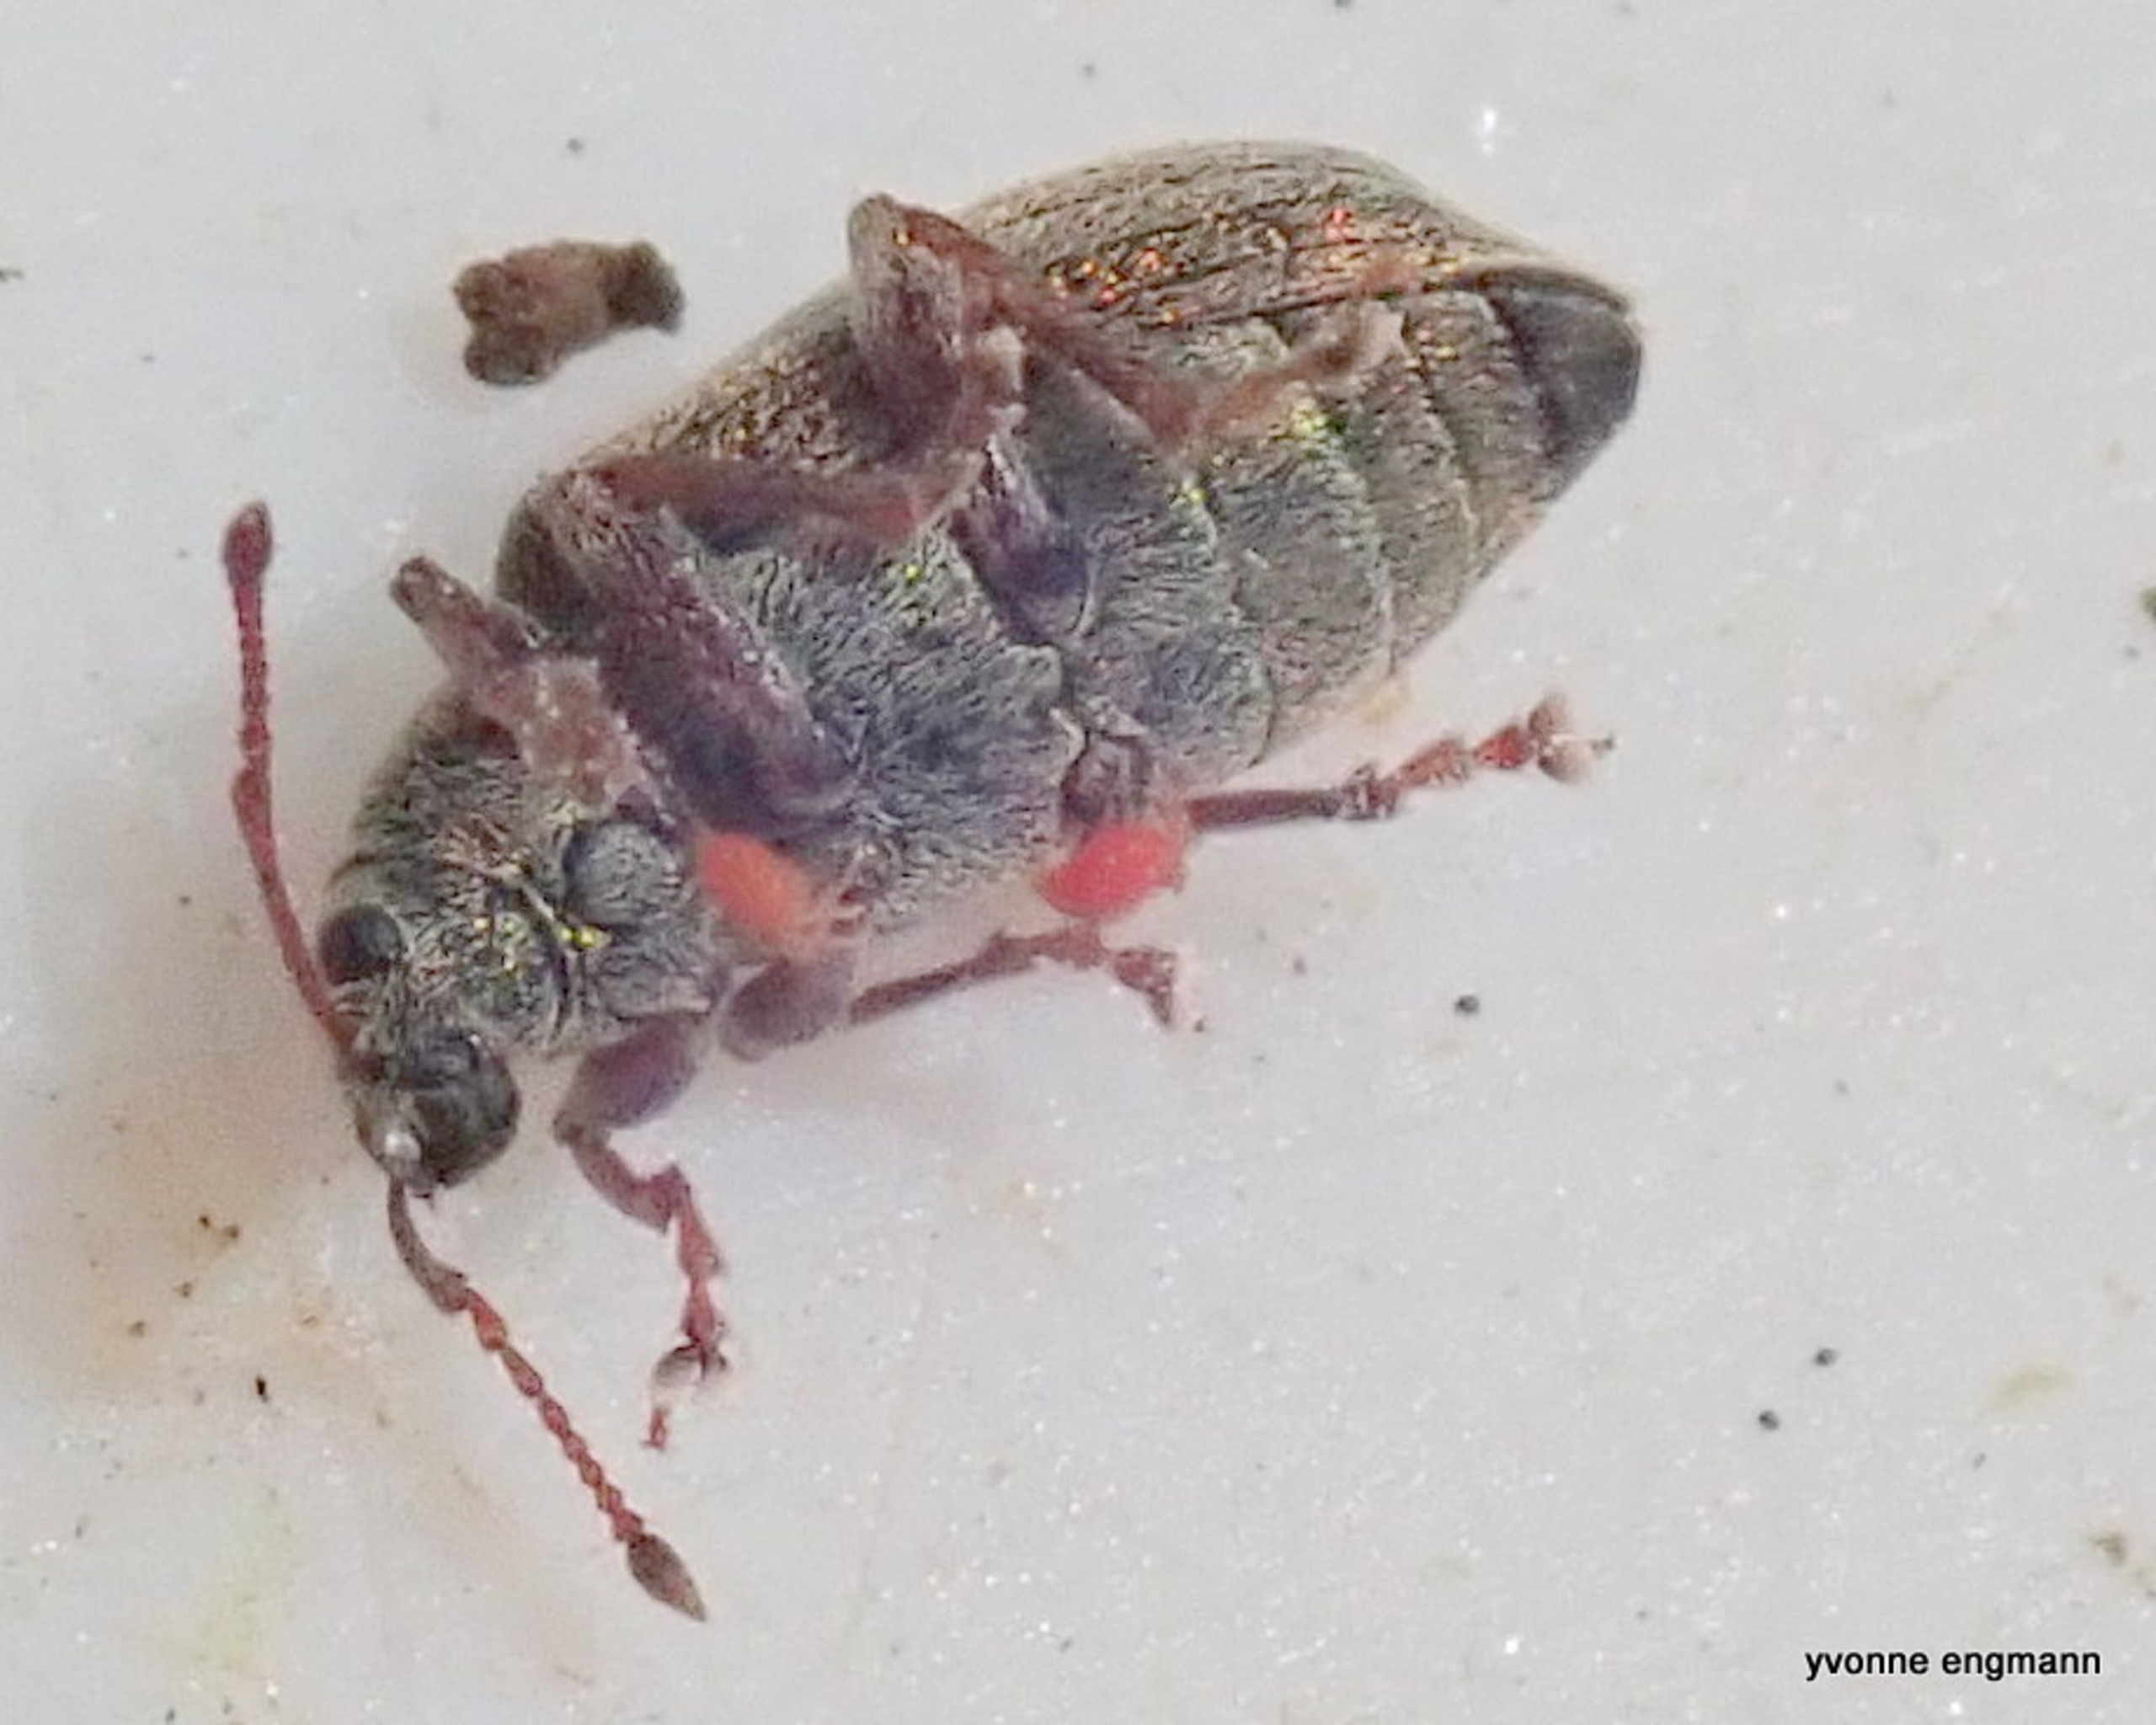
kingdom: Animalia
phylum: Arthropoda
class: Insecta
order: Coleoptera
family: Curculionidae
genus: Phyllobius
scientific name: Phyllobius pyri
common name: Pæreløvsnudebille
